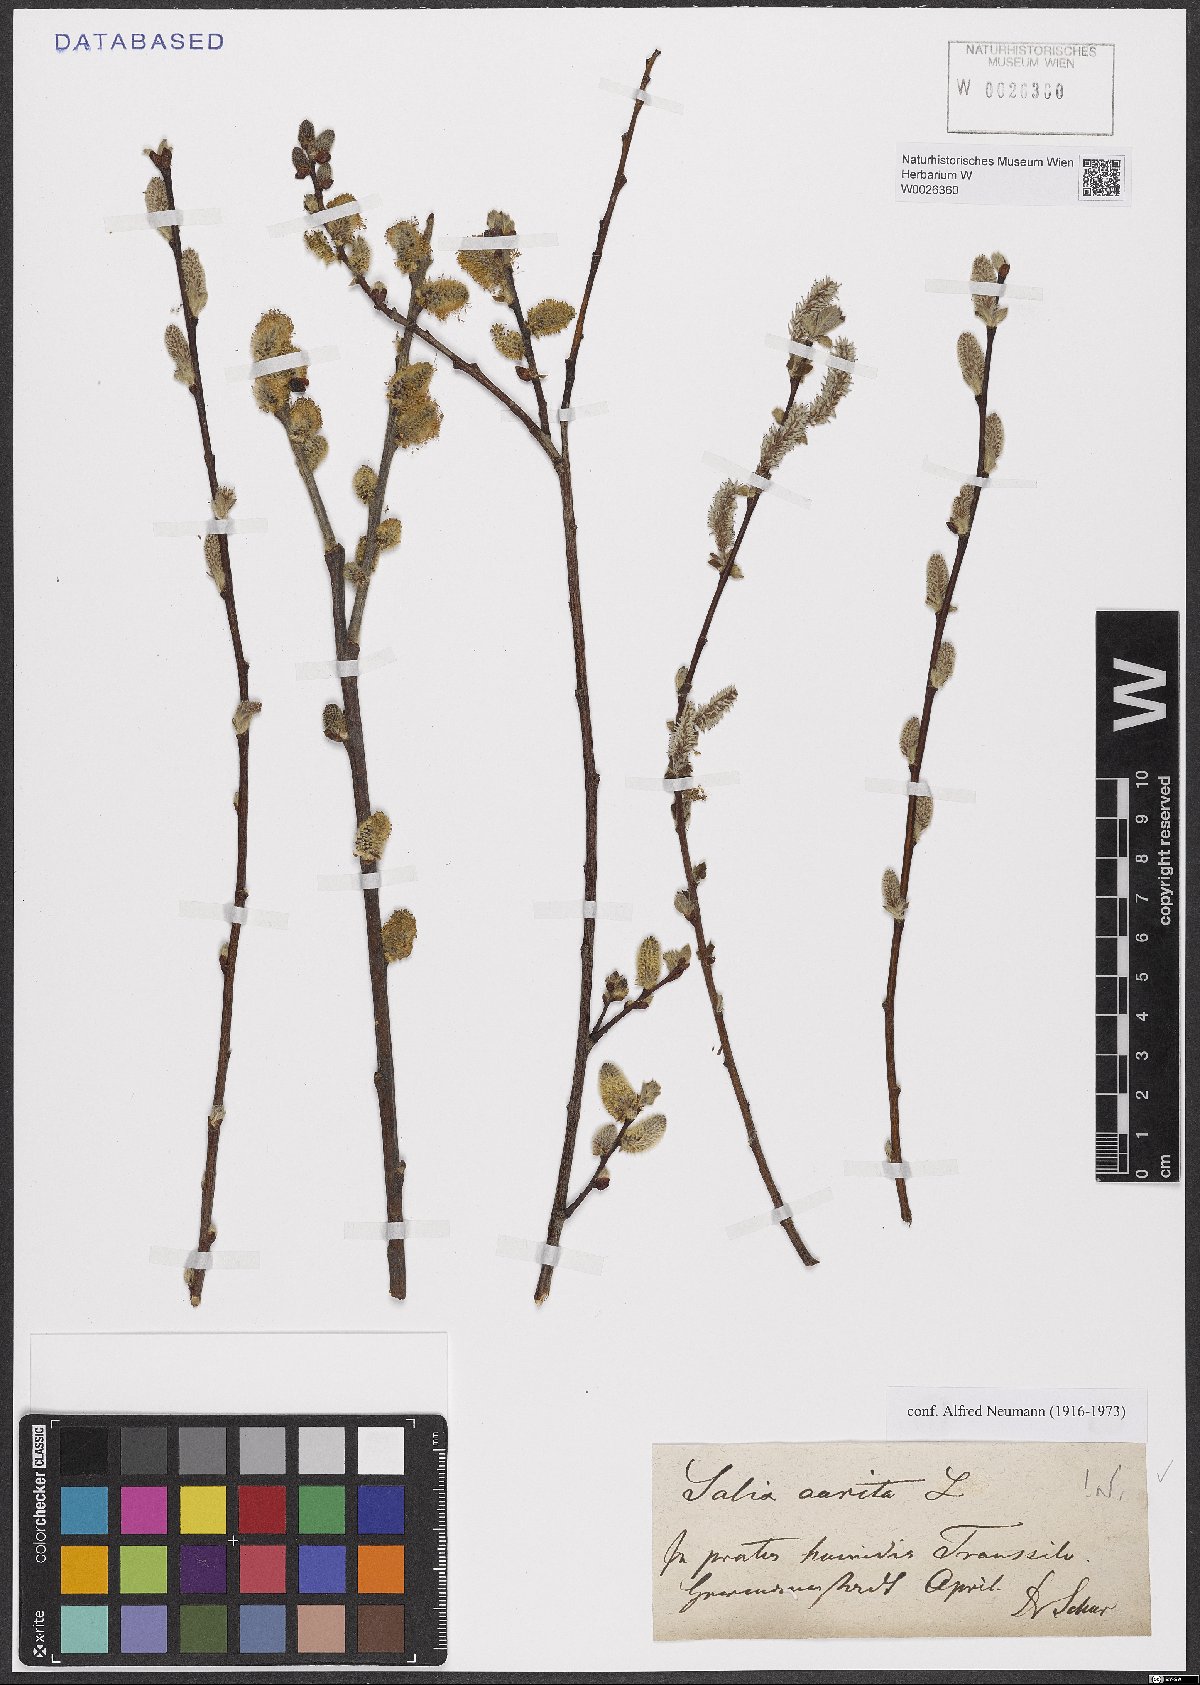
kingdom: Plantae
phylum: Tracheophyta
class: Magnoliopsida
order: Malpighiales
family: Salicaceae
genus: Salix
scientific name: Salix aurita
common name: Eared willow
